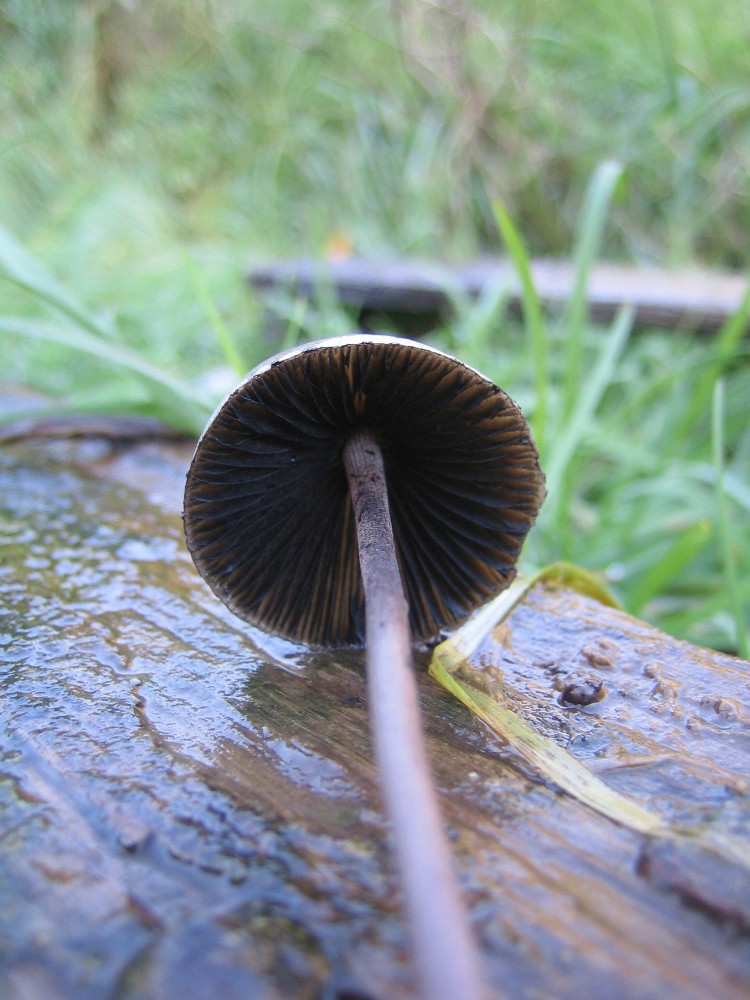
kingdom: Fungi
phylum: Basidiomycota
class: Agaricomycetes
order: Agaricales
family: Bolbitiaceae
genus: Panaeolus
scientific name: Panaeolus papilionaceus
